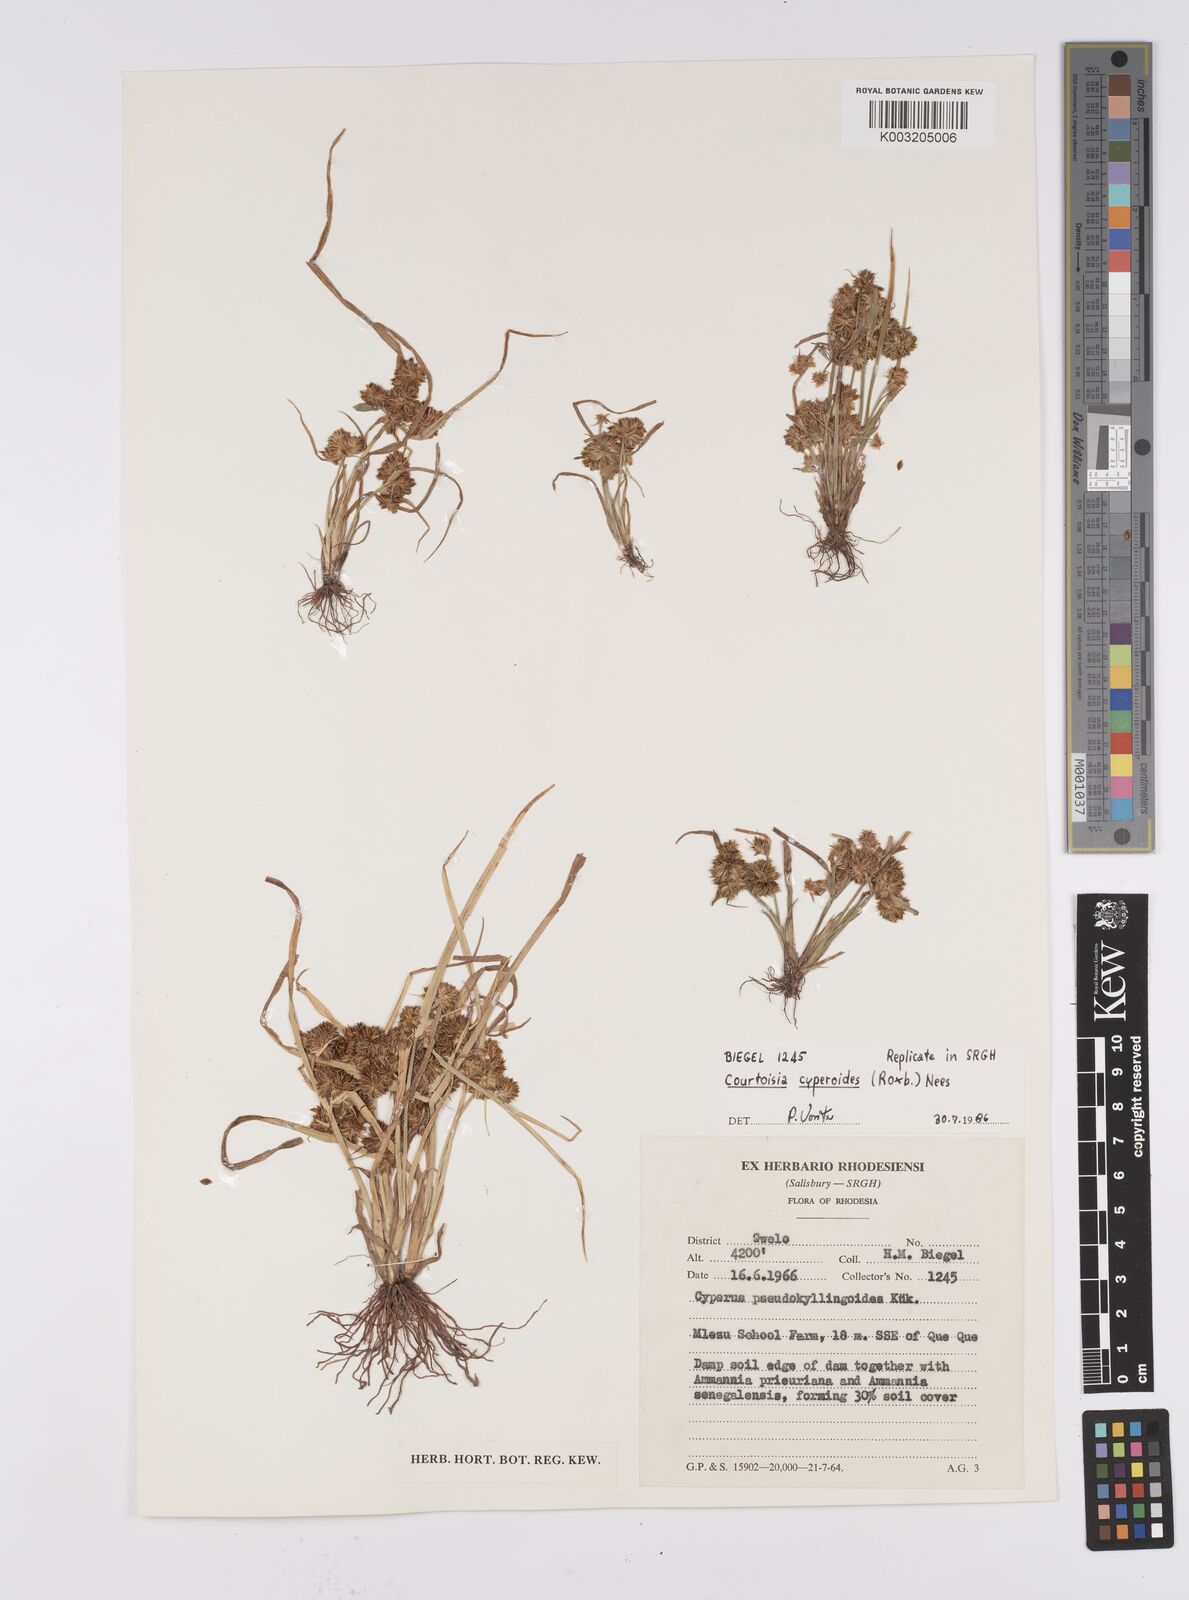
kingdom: Plantae
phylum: Tracheophyta
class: Liliopsida
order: Poales
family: Cyperaceae
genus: Cyperus
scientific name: Cyperus cyperoides
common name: Pacific island flat sedge
